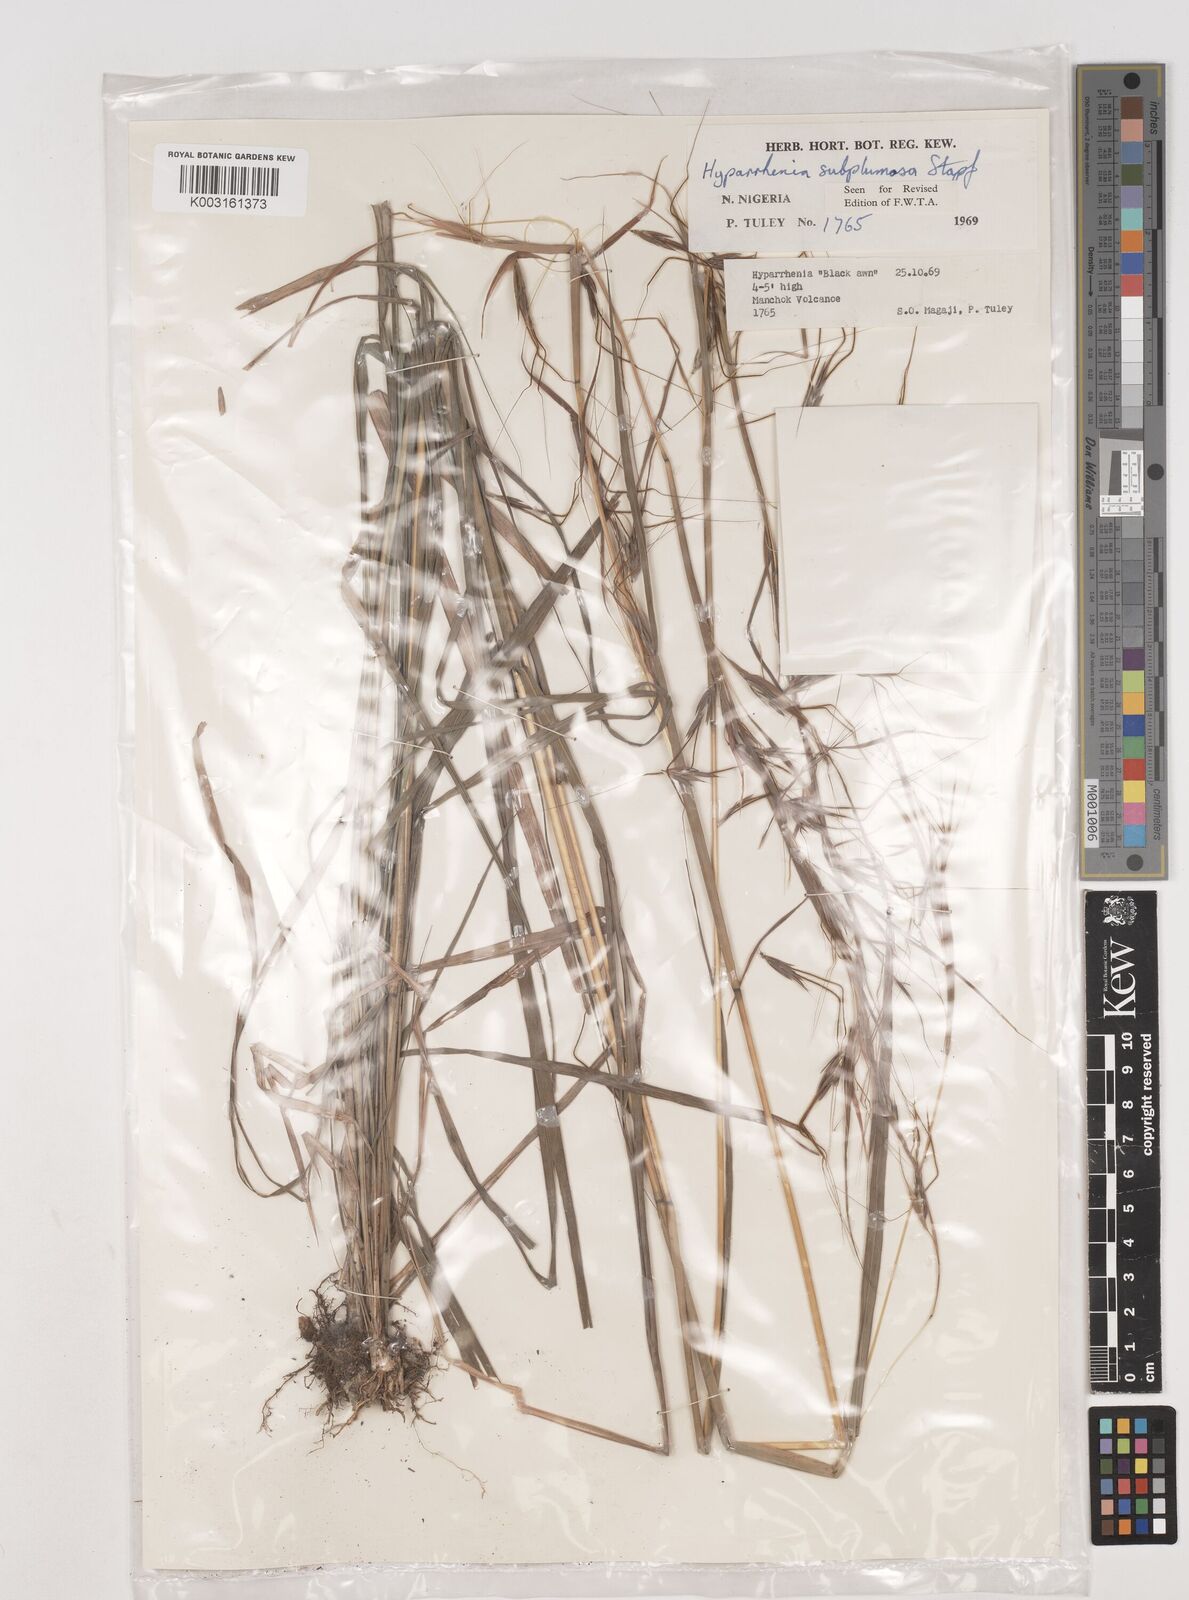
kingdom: Plantae
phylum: Tracheophyta
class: Liliopsida
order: Poales
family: Poaceae
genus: Hyparrhenia
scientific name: Hyparrhenia subplumosa
